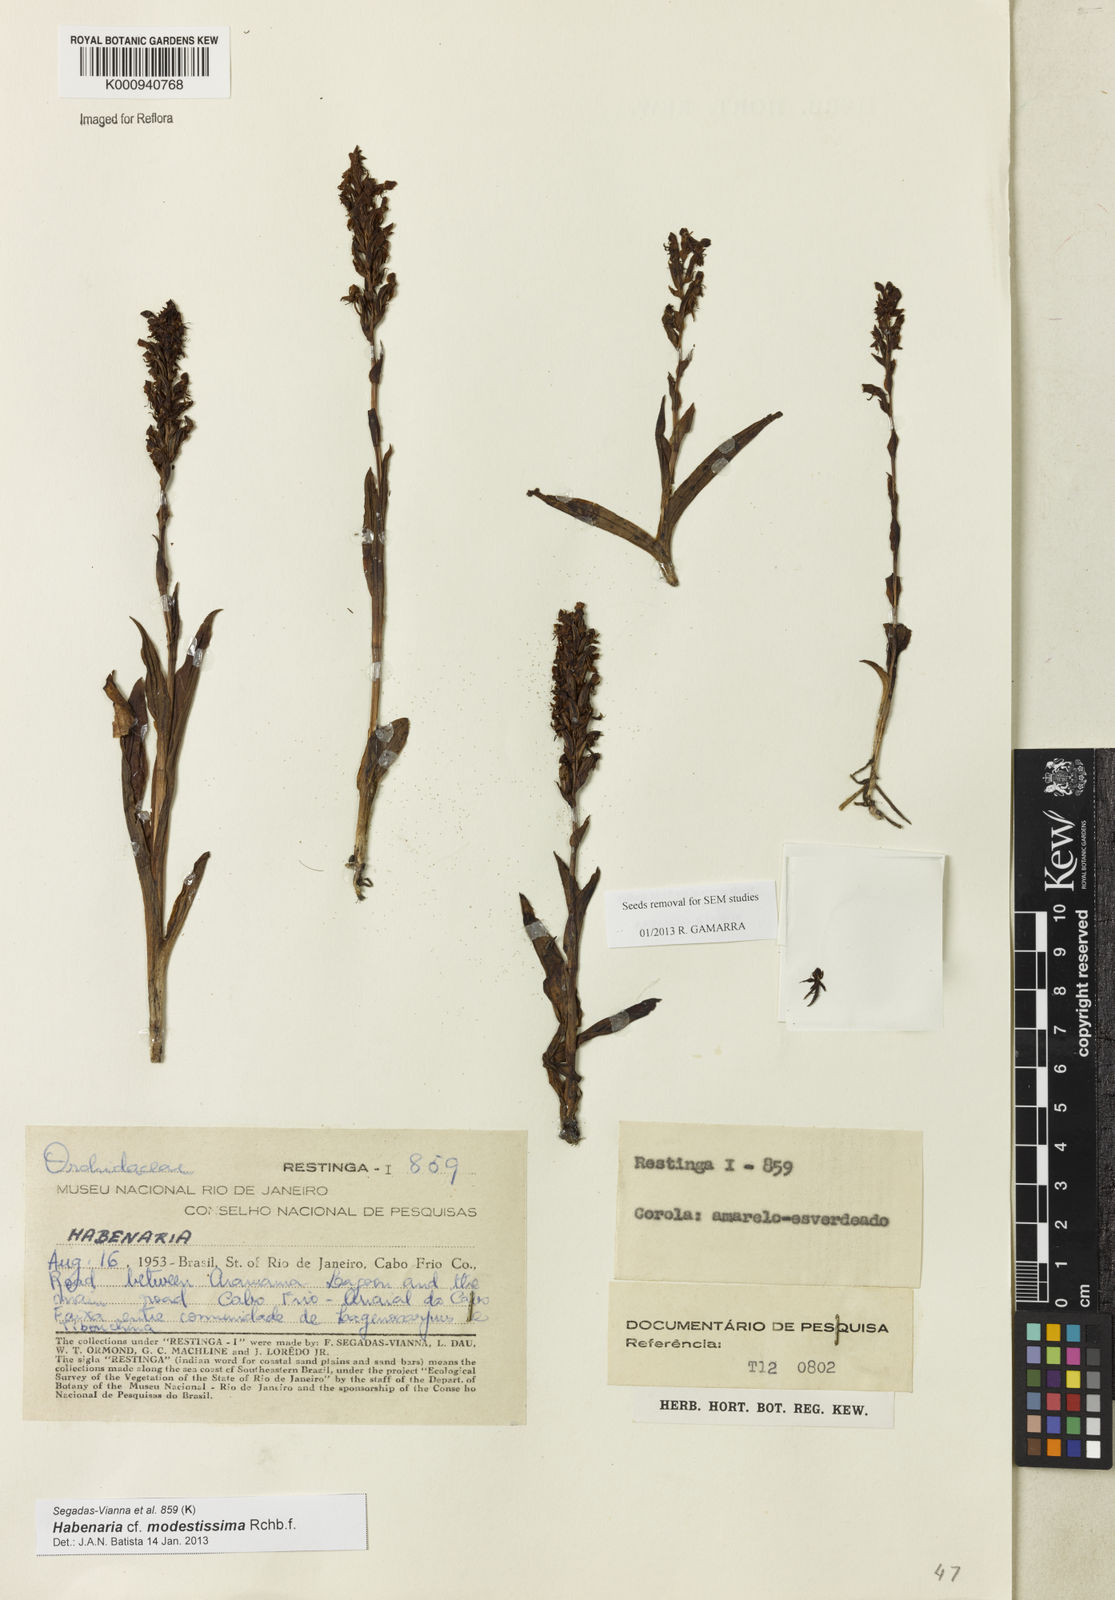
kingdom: Plantae
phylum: Tracheophyta
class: Liliopsida
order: Asparagales
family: Orchidaceae
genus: Habenaria
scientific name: Habenaria modestissima
